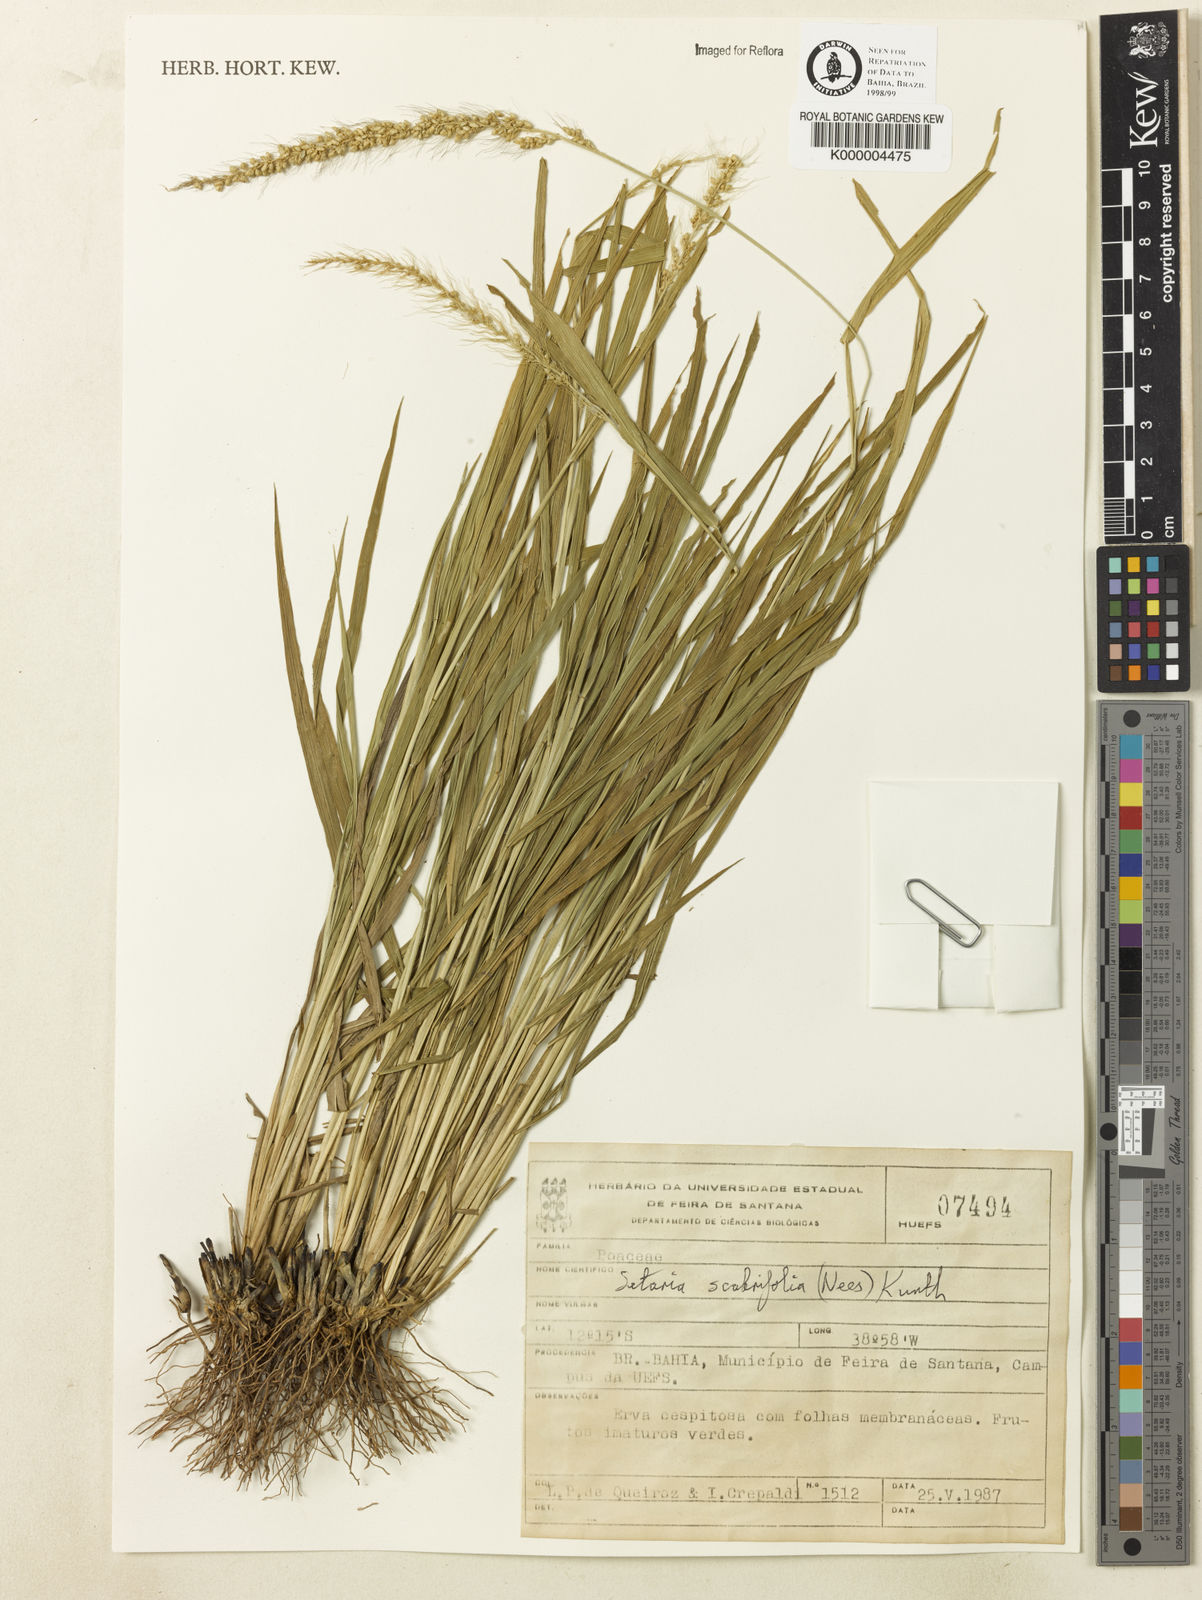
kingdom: Plantae
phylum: Tracheophyta
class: Liliopsida
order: Poales
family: Poaceae
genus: Setaria
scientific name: Setaria scabrifolia
